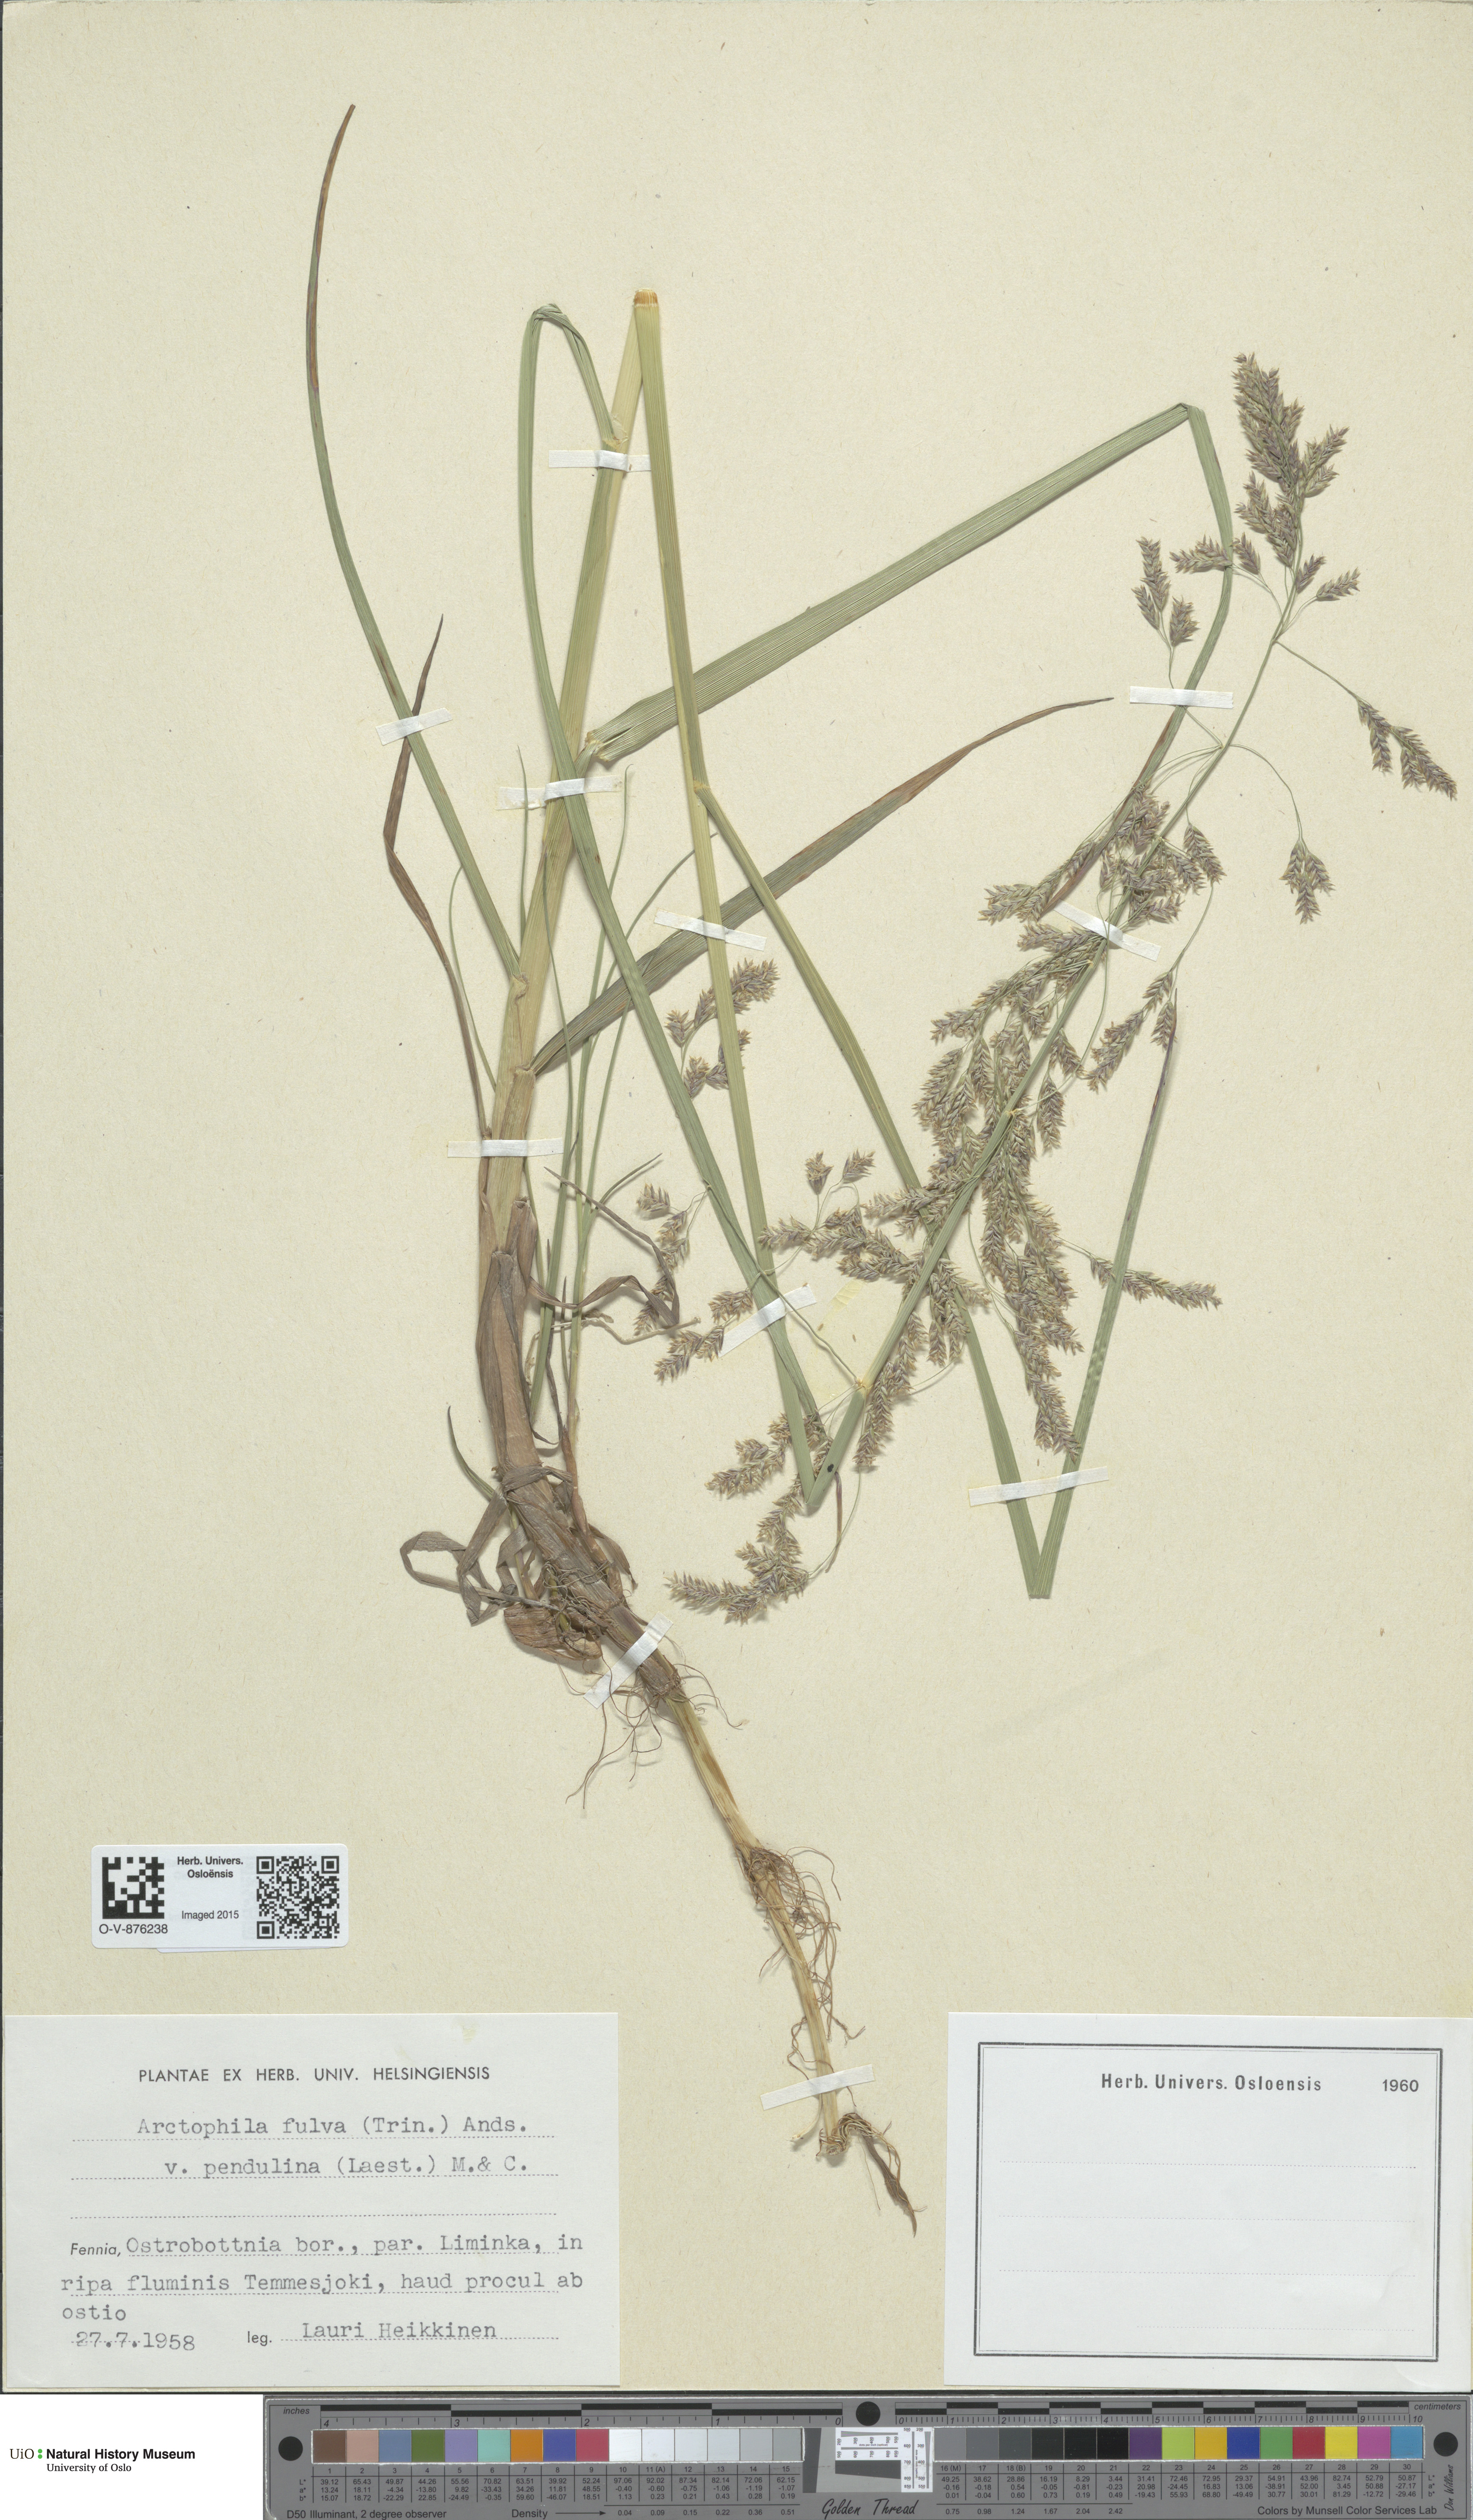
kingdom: Plantae
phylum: Tracheophyta
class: Liliopsida
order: Poales
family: Poaceae
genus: Dupontia
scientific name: Dupontia fulva
